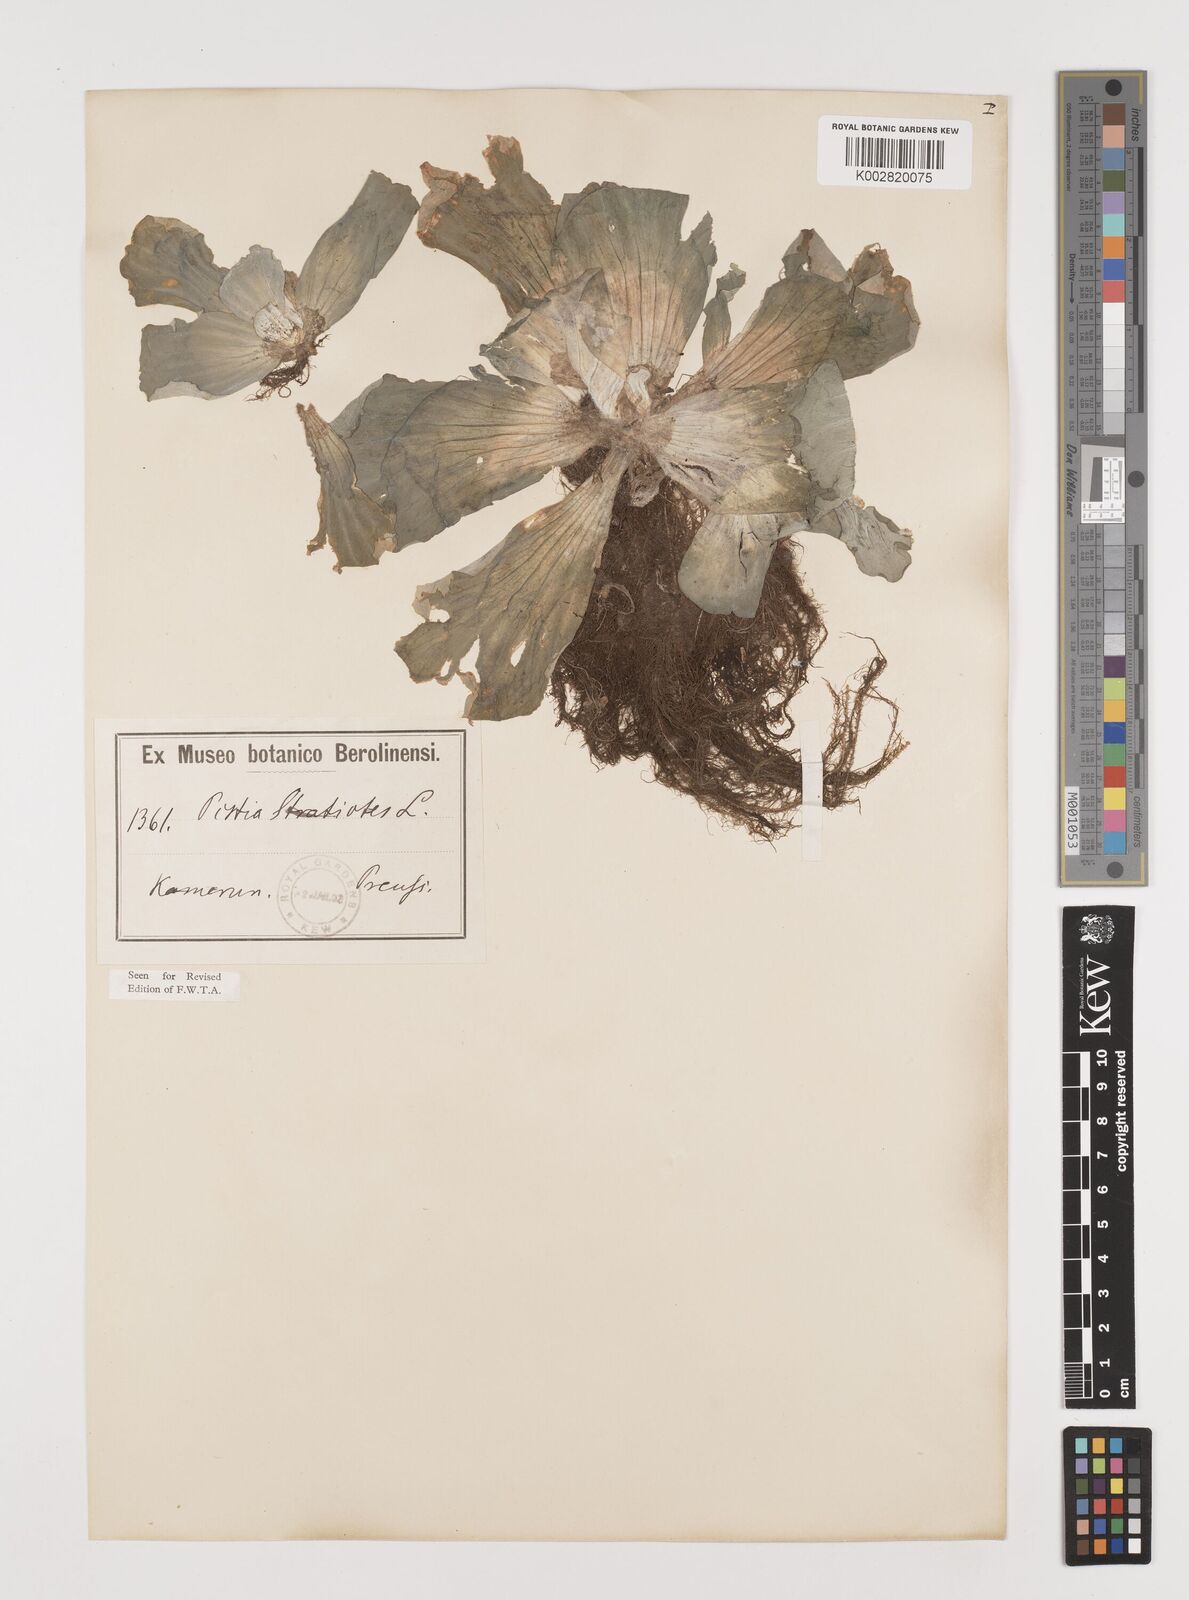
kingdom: Plantae
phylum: Tracheophyta
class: Liliopsida
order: Alismatales
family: Araceae
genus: Pistia
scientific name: Pistia stratiotes
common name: Water lettuce
